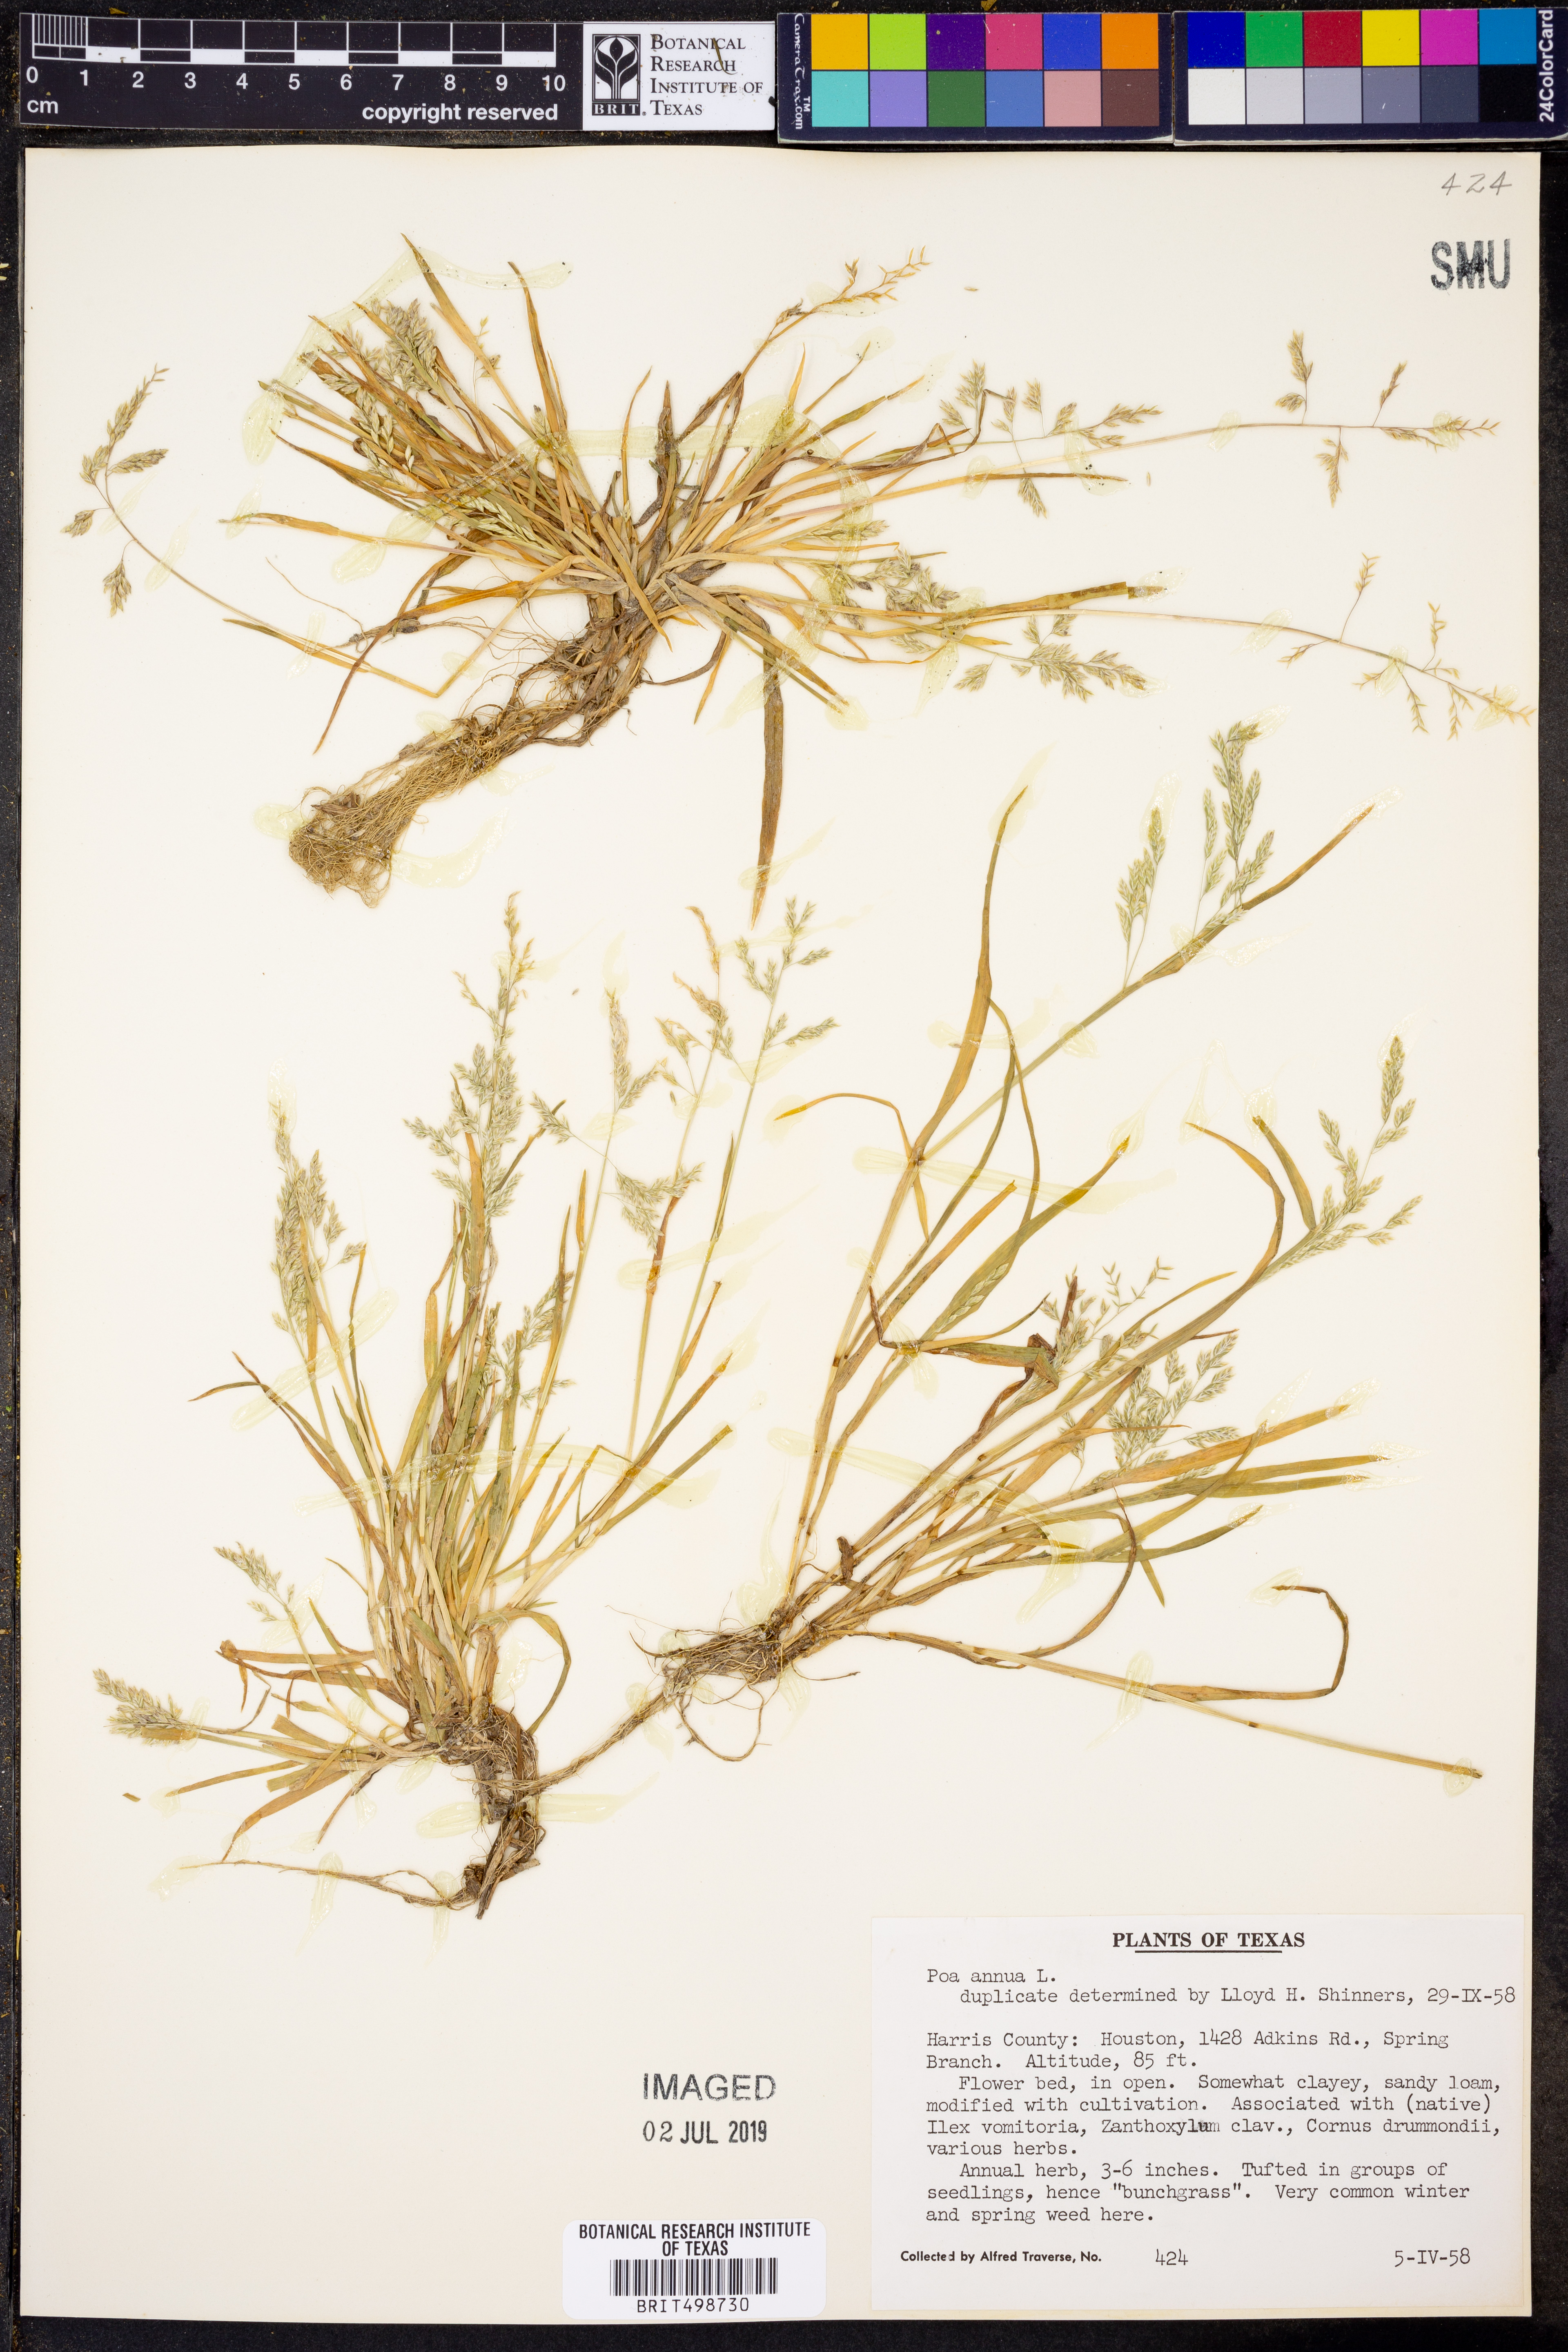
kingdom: Plantae
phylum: Tracheophyta
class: Liliopsida
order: Poales
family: Poaceae
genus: Poa
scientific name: Poa annua
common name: Annual bluegrass
